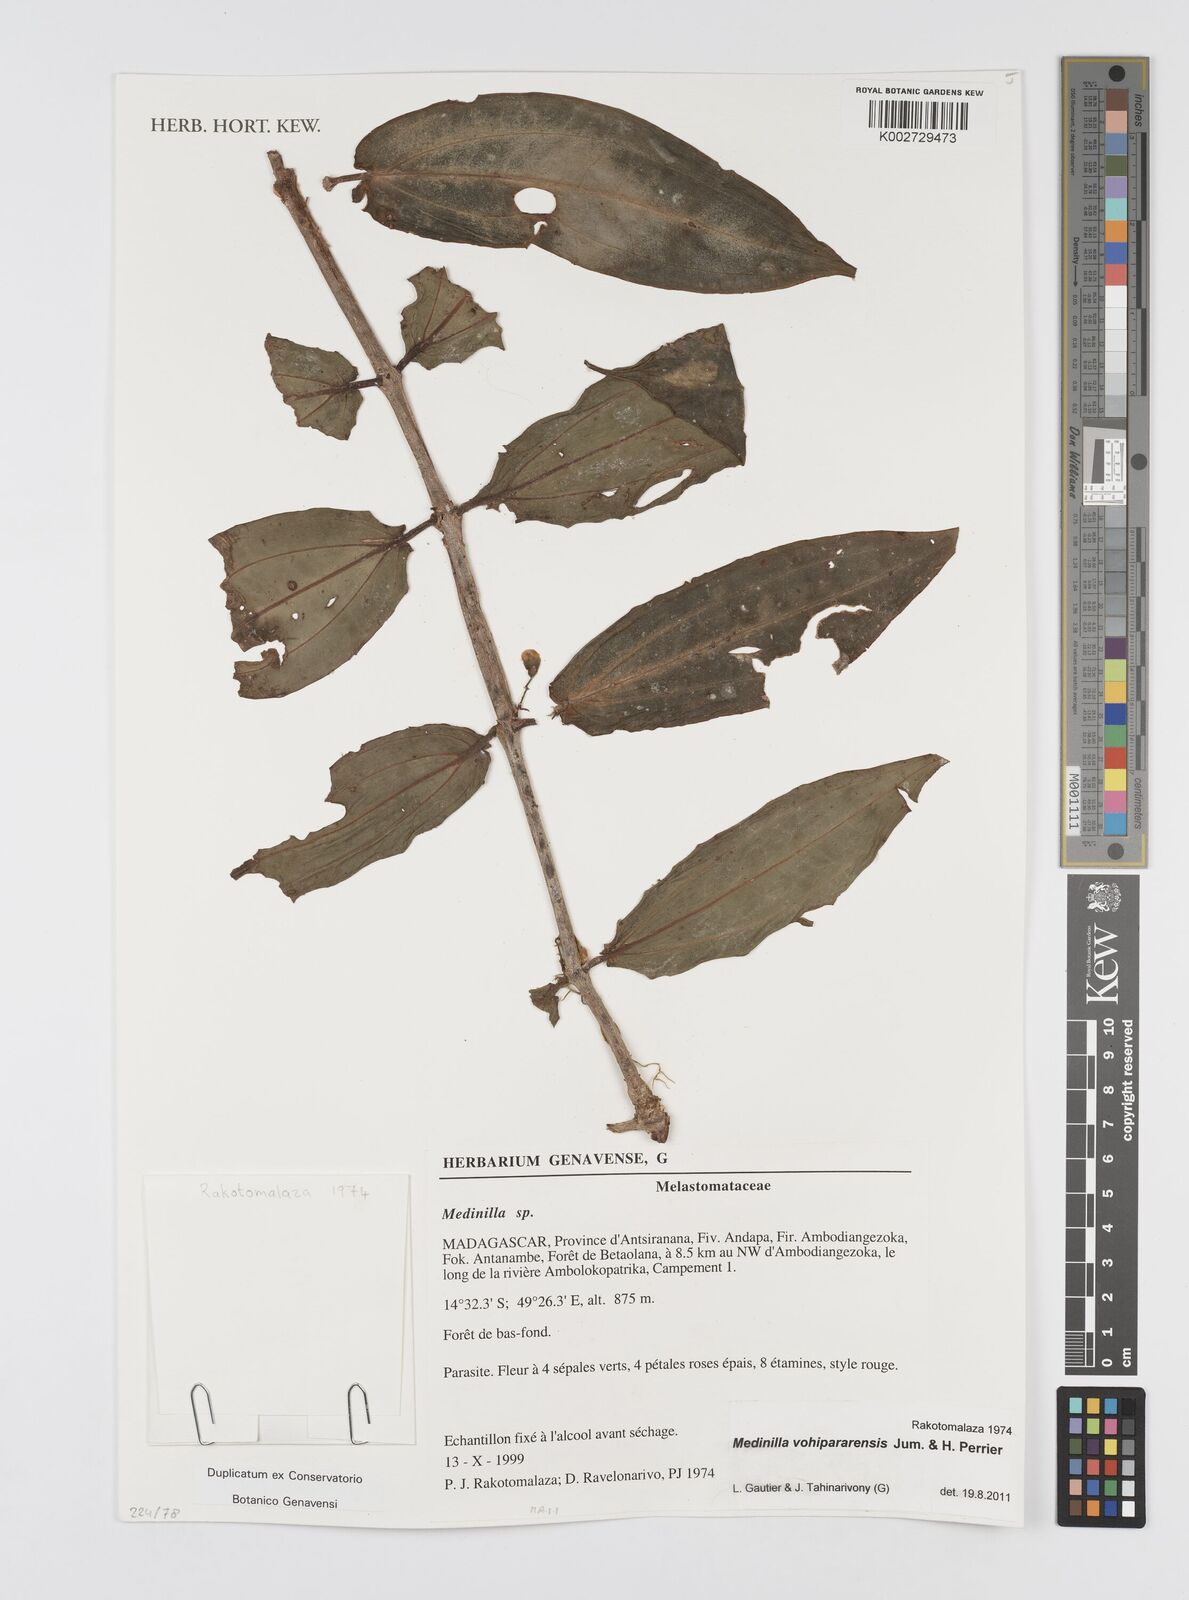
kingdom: Plantae
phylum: Tracheophyta
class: Magnoliopsida
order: Myrtales
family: Melastomataceae
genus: Medinilla
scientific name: Medinilla
